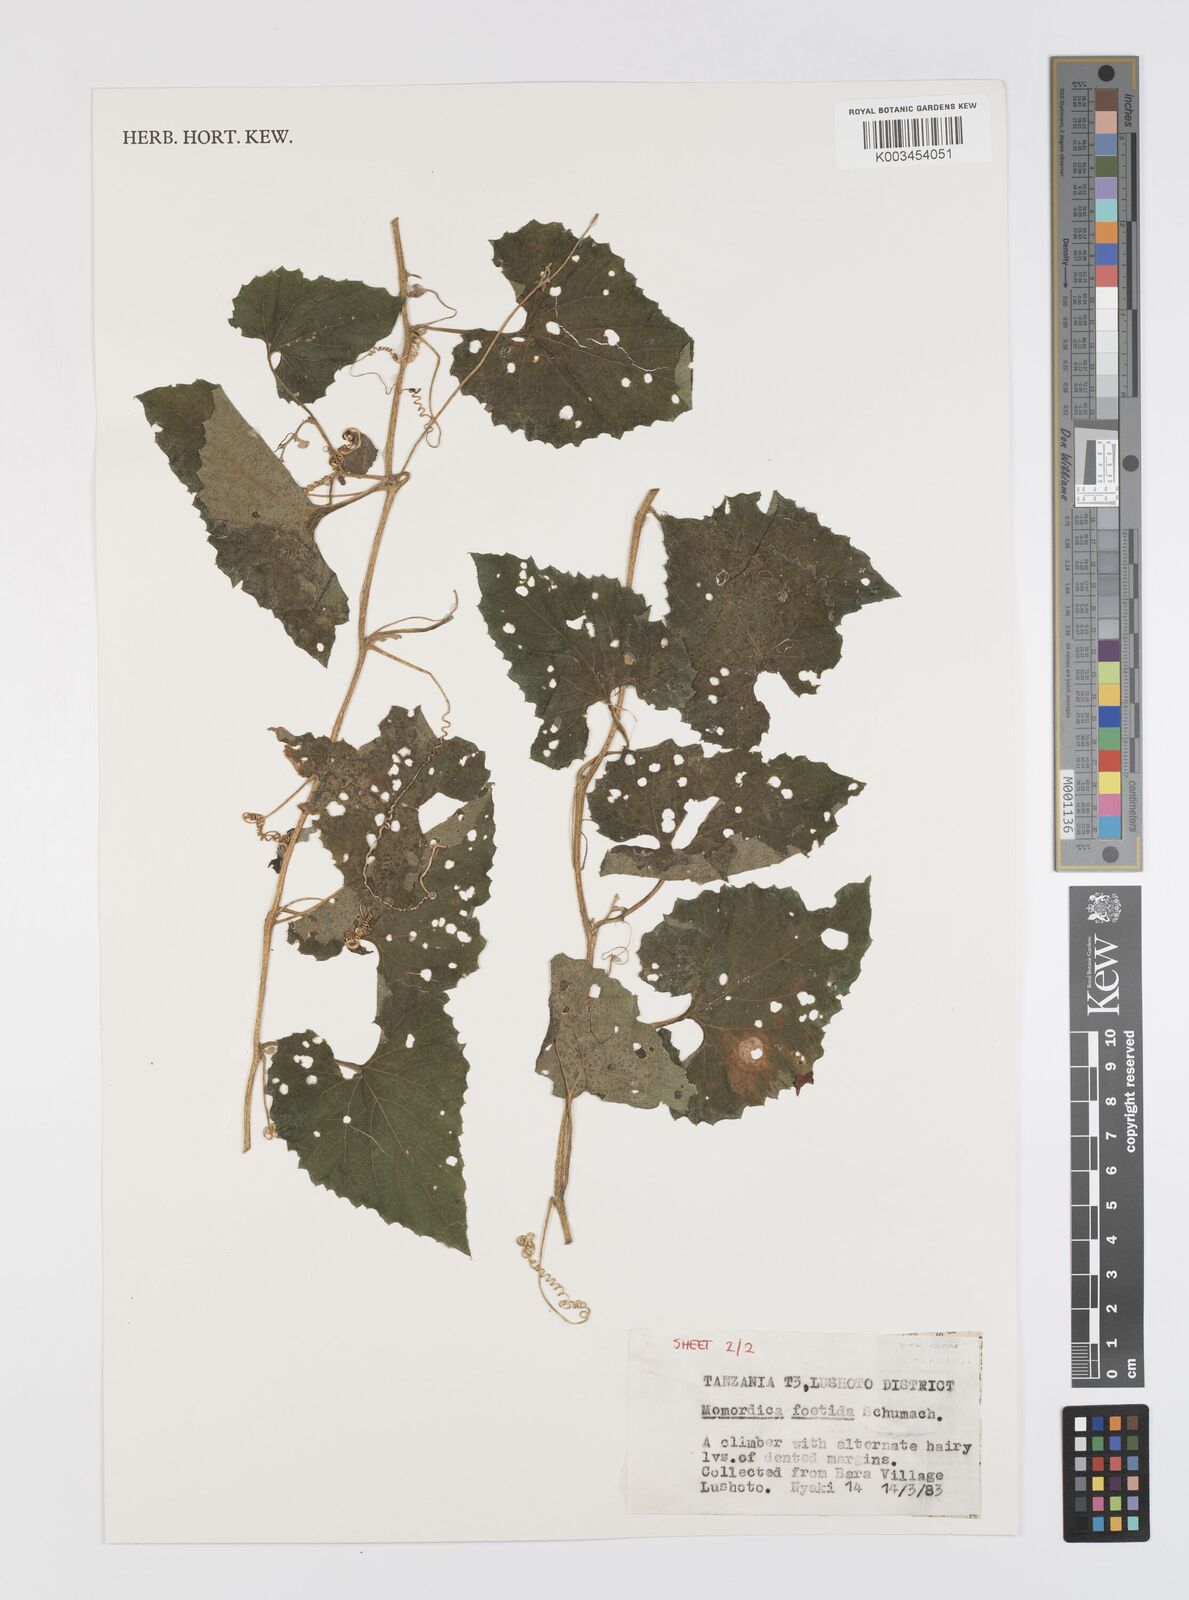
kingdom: Plantae
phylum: Tracheophyta
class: Magnoliopsida
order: Cucurbitales
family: Cucurbitaceae
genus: Momordica
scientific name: Momordica foetida
